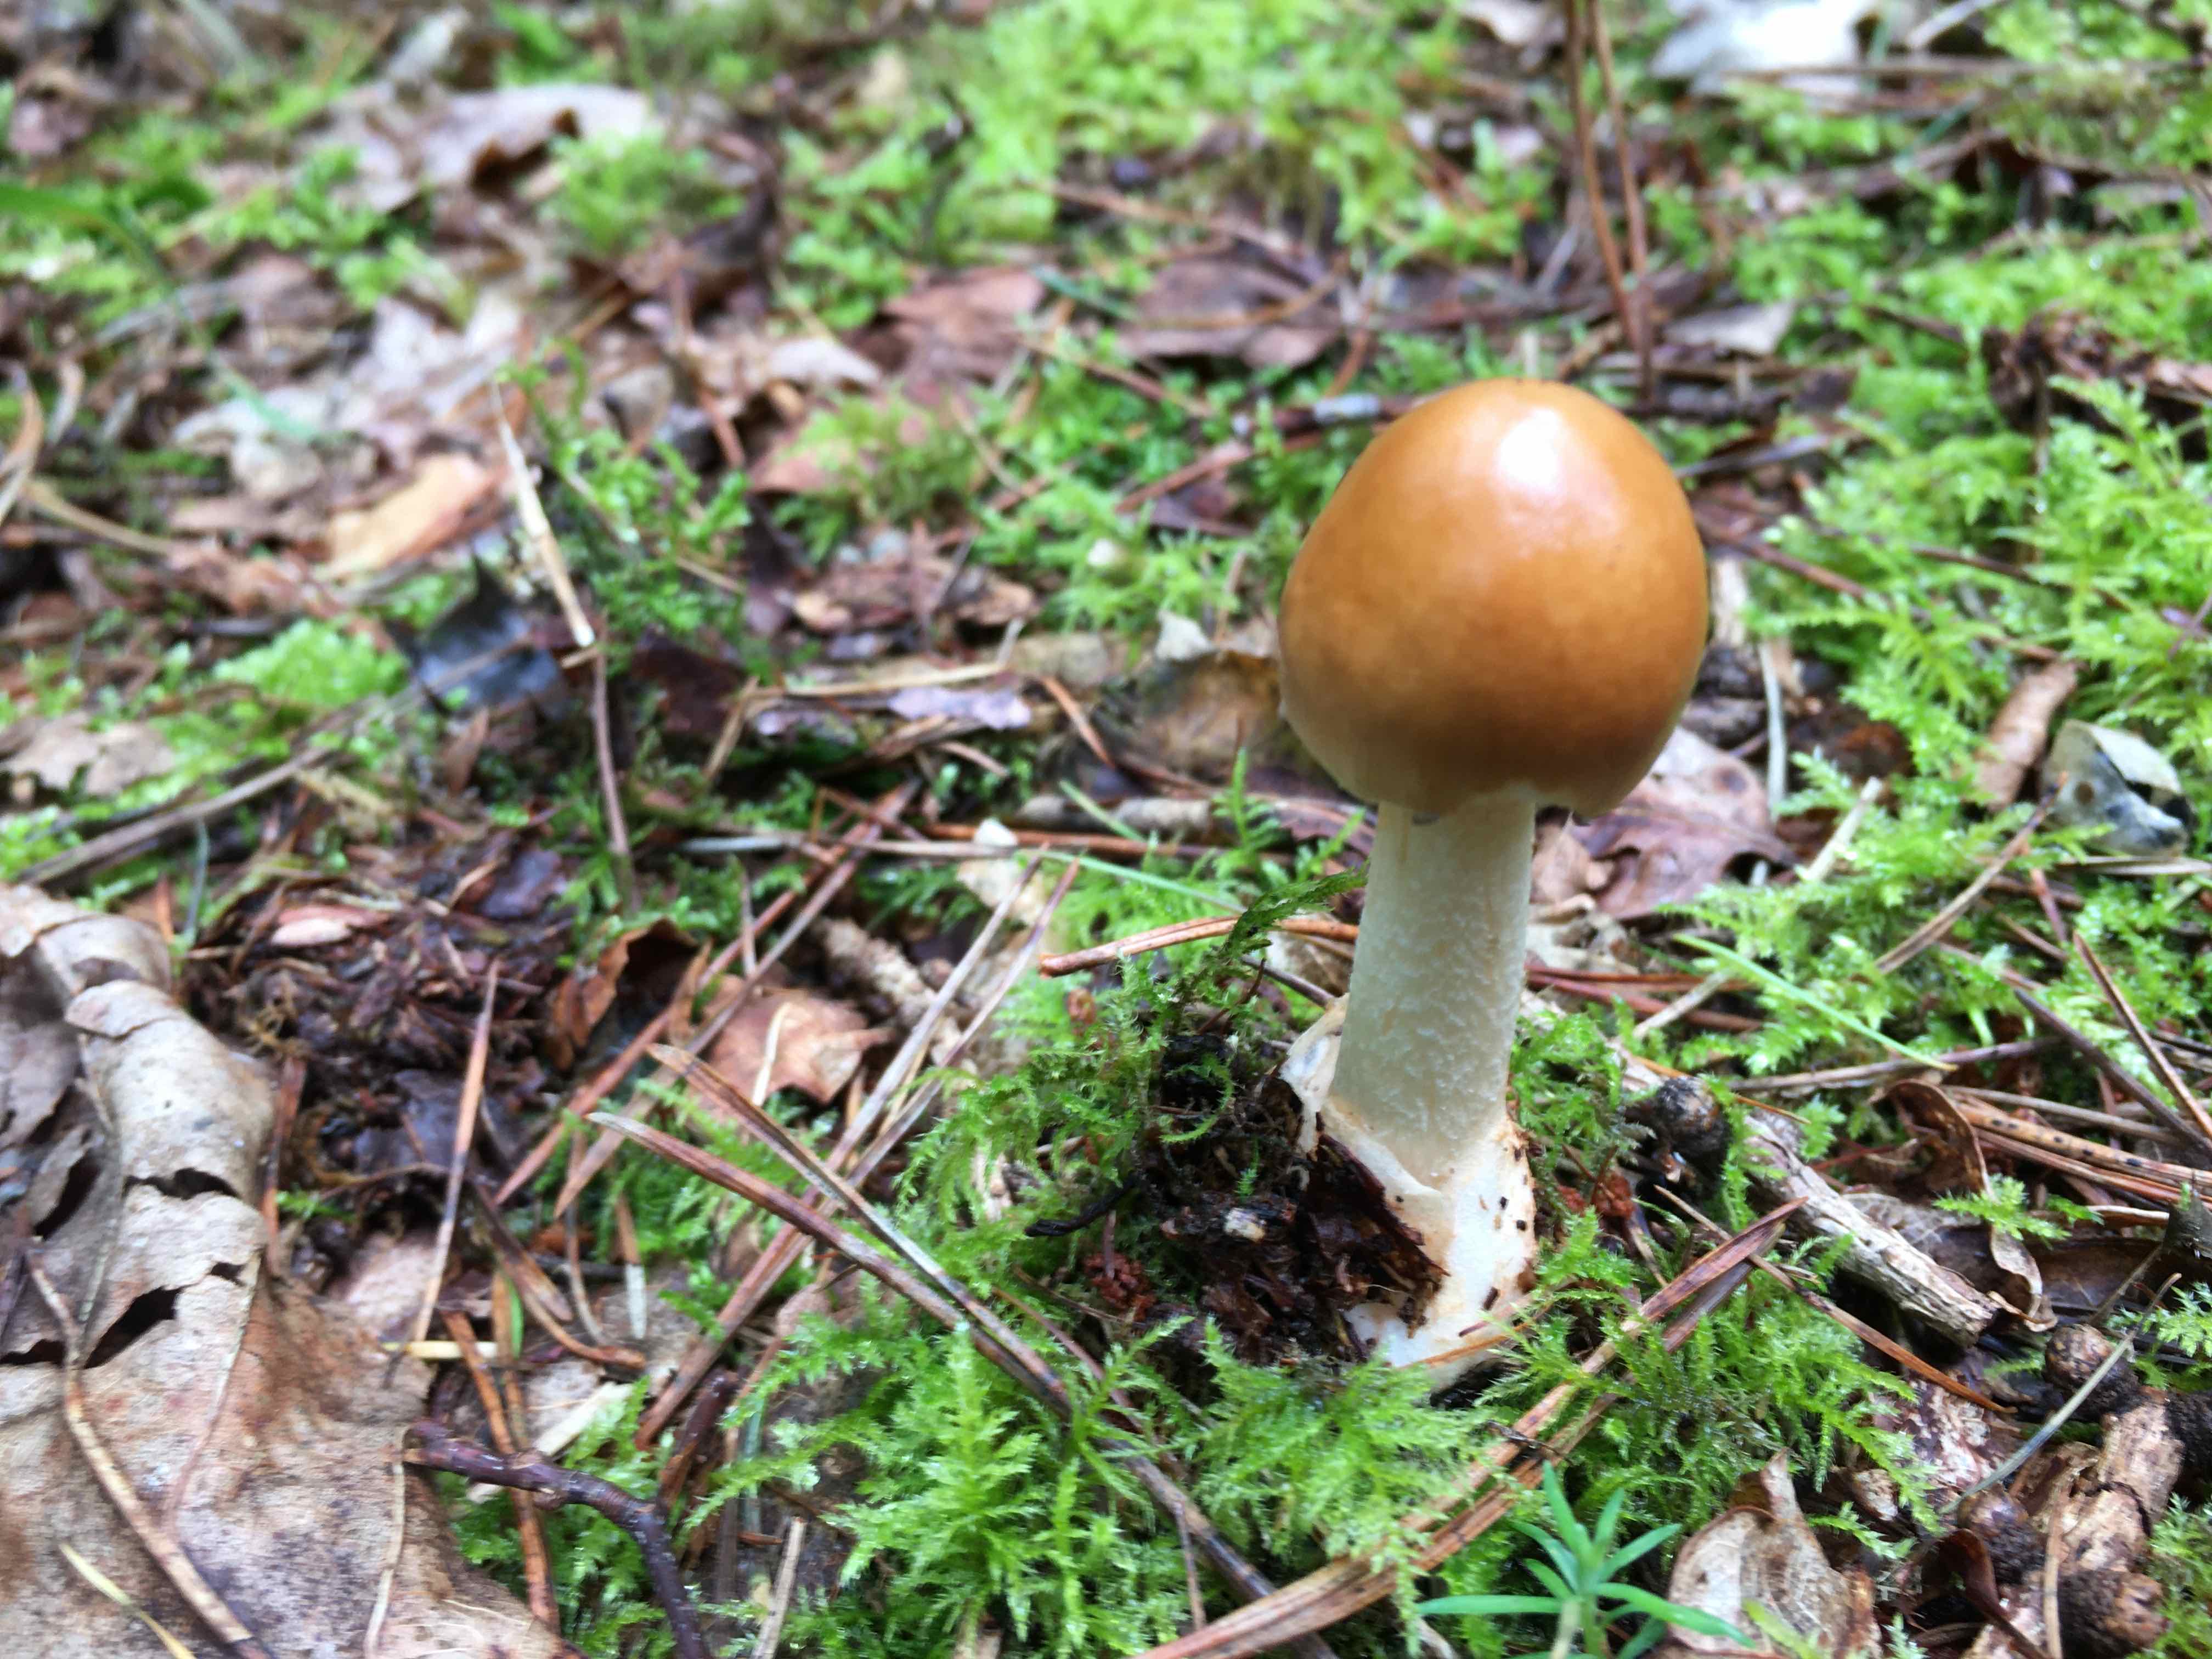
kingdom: Fungi
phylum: Basidiomycota
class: Agaricomycetes
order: Agaricales
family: Amanitaceae
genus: Amanita
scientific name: Amanita fulva
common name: brun kam-fluesvamp
